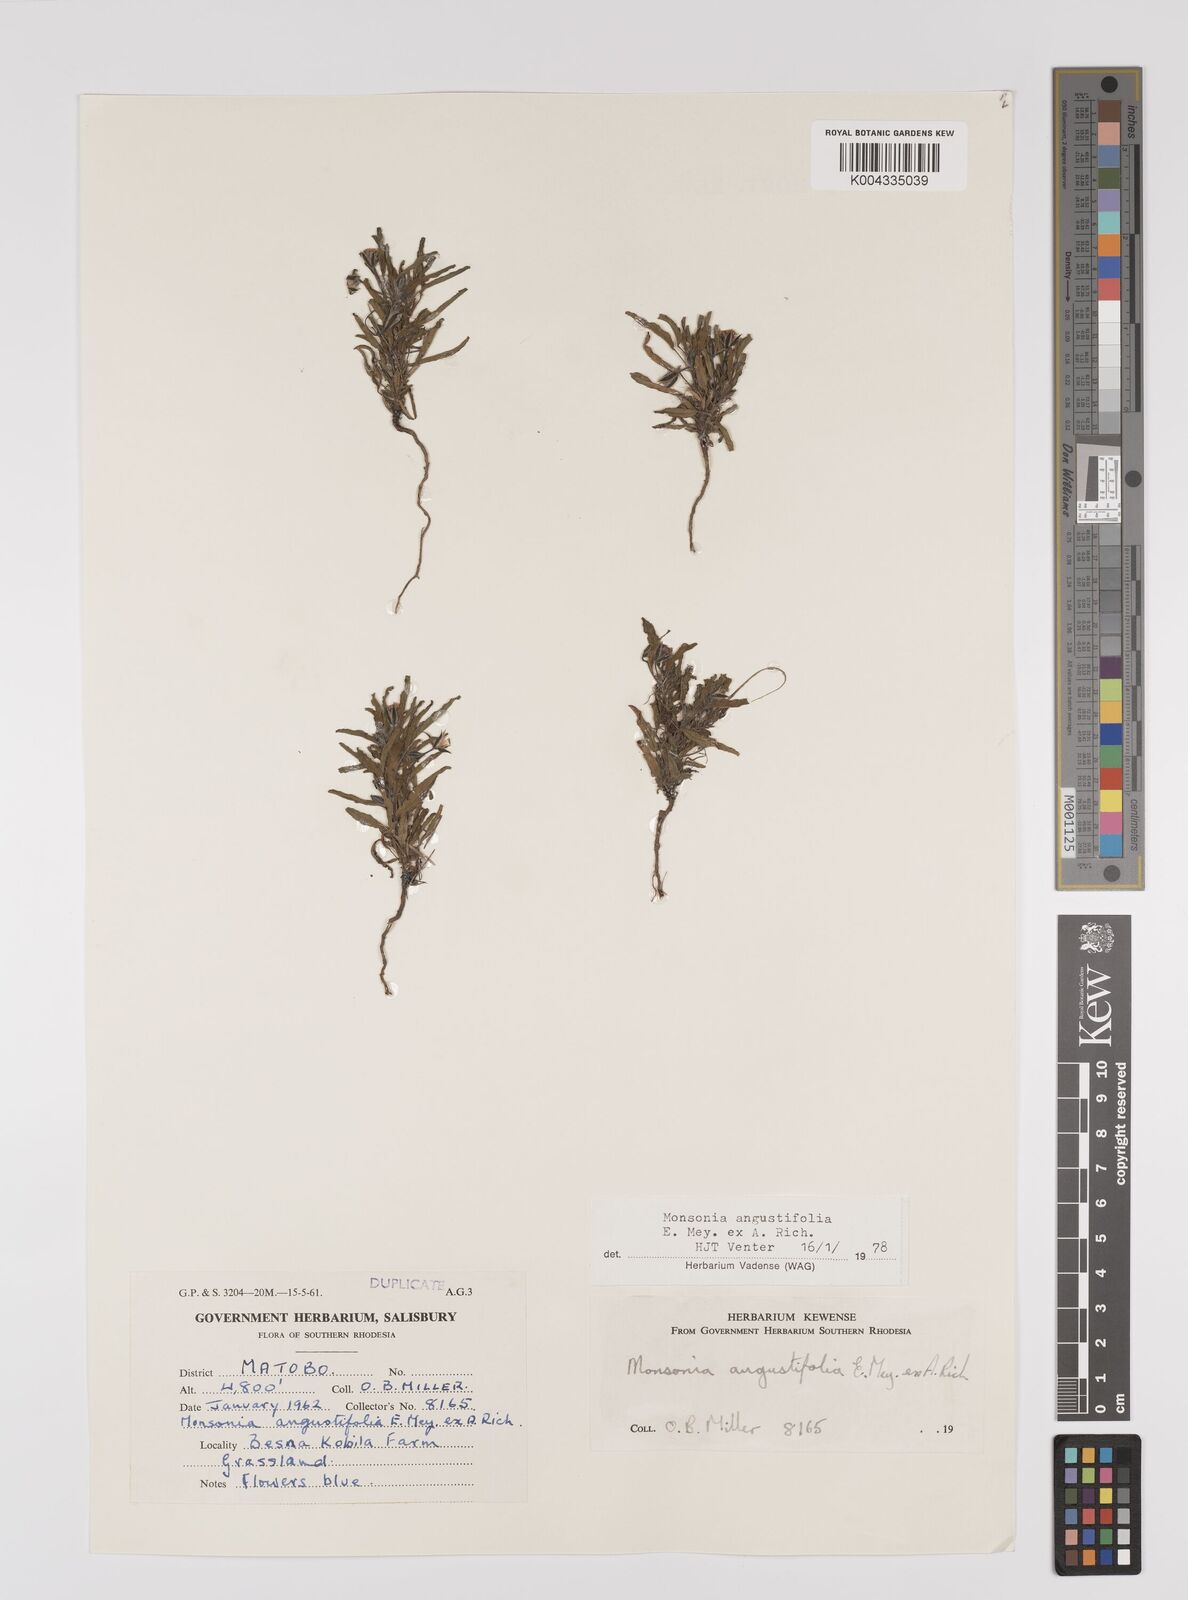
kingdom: Plantae
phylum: Tracheophyta
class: Magnoliopsida
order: Geraniales
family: Geraniaceae
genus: Monsonia
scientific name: Monsonia angustifolia
